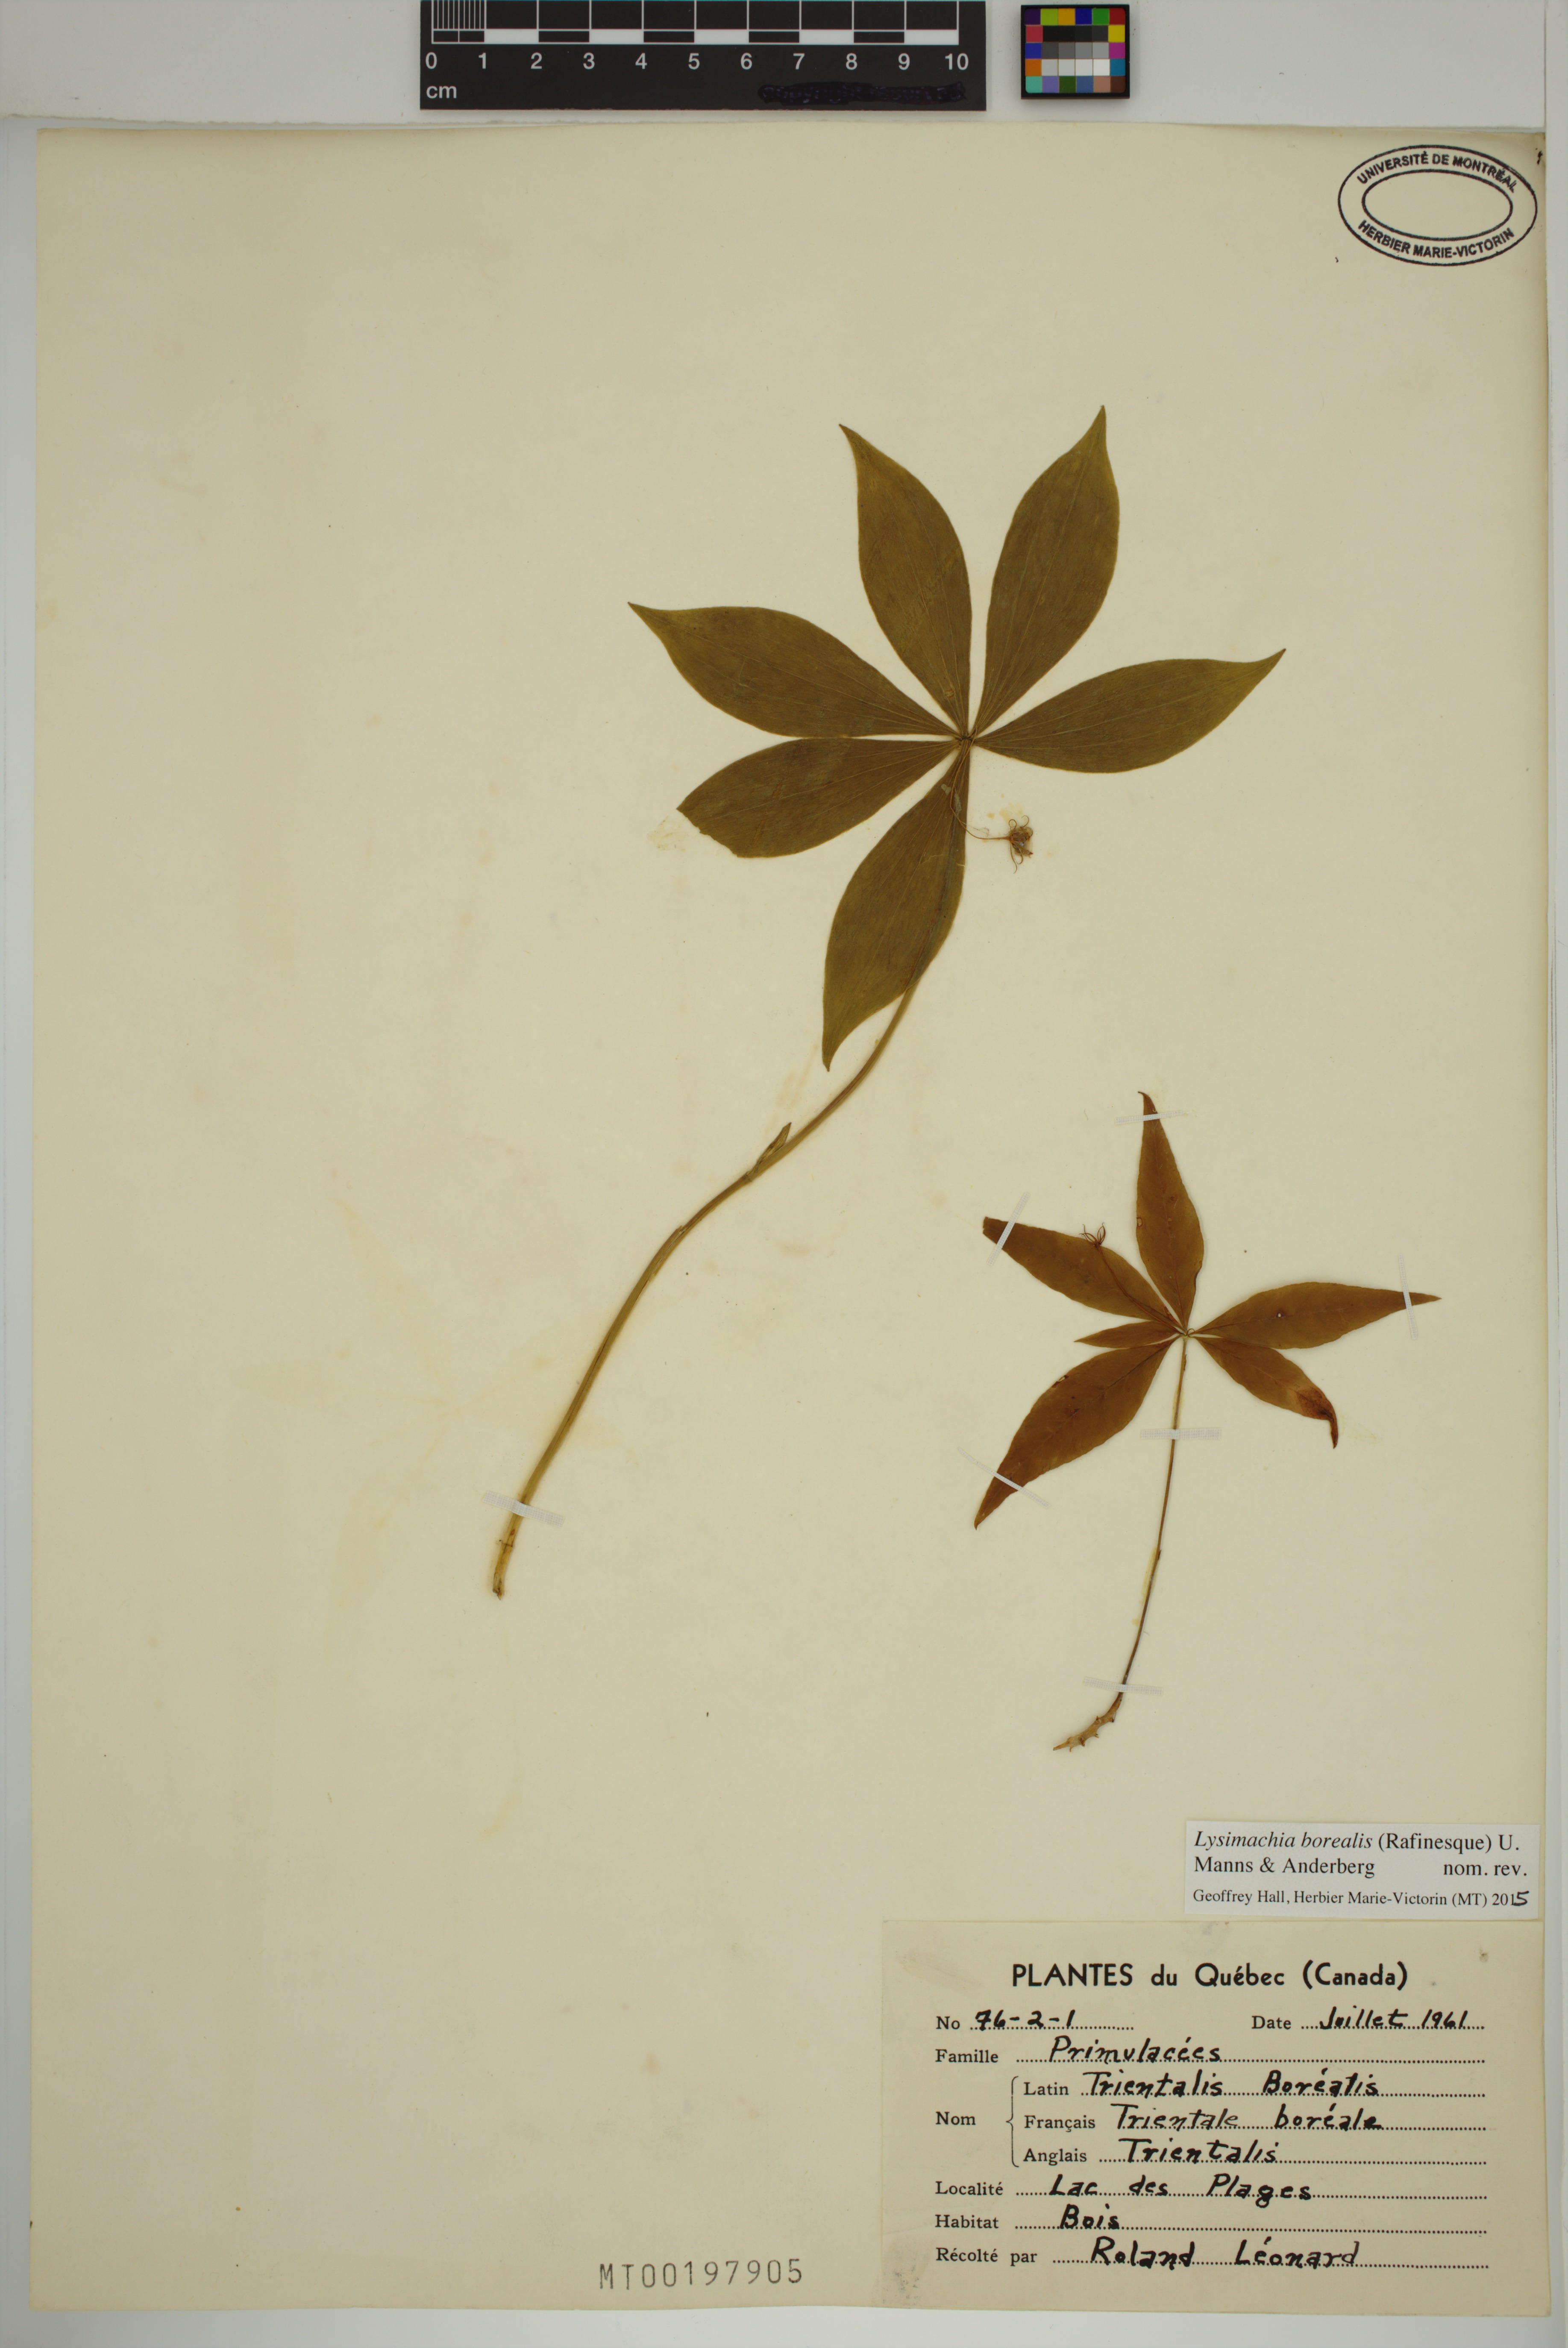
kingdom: Plantae
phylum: Tracheophyta
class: Magnoliopsida
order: Ericales
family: Primulaceae
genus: Lysimachia
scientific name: Lysimachia borealis
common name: American starflower
